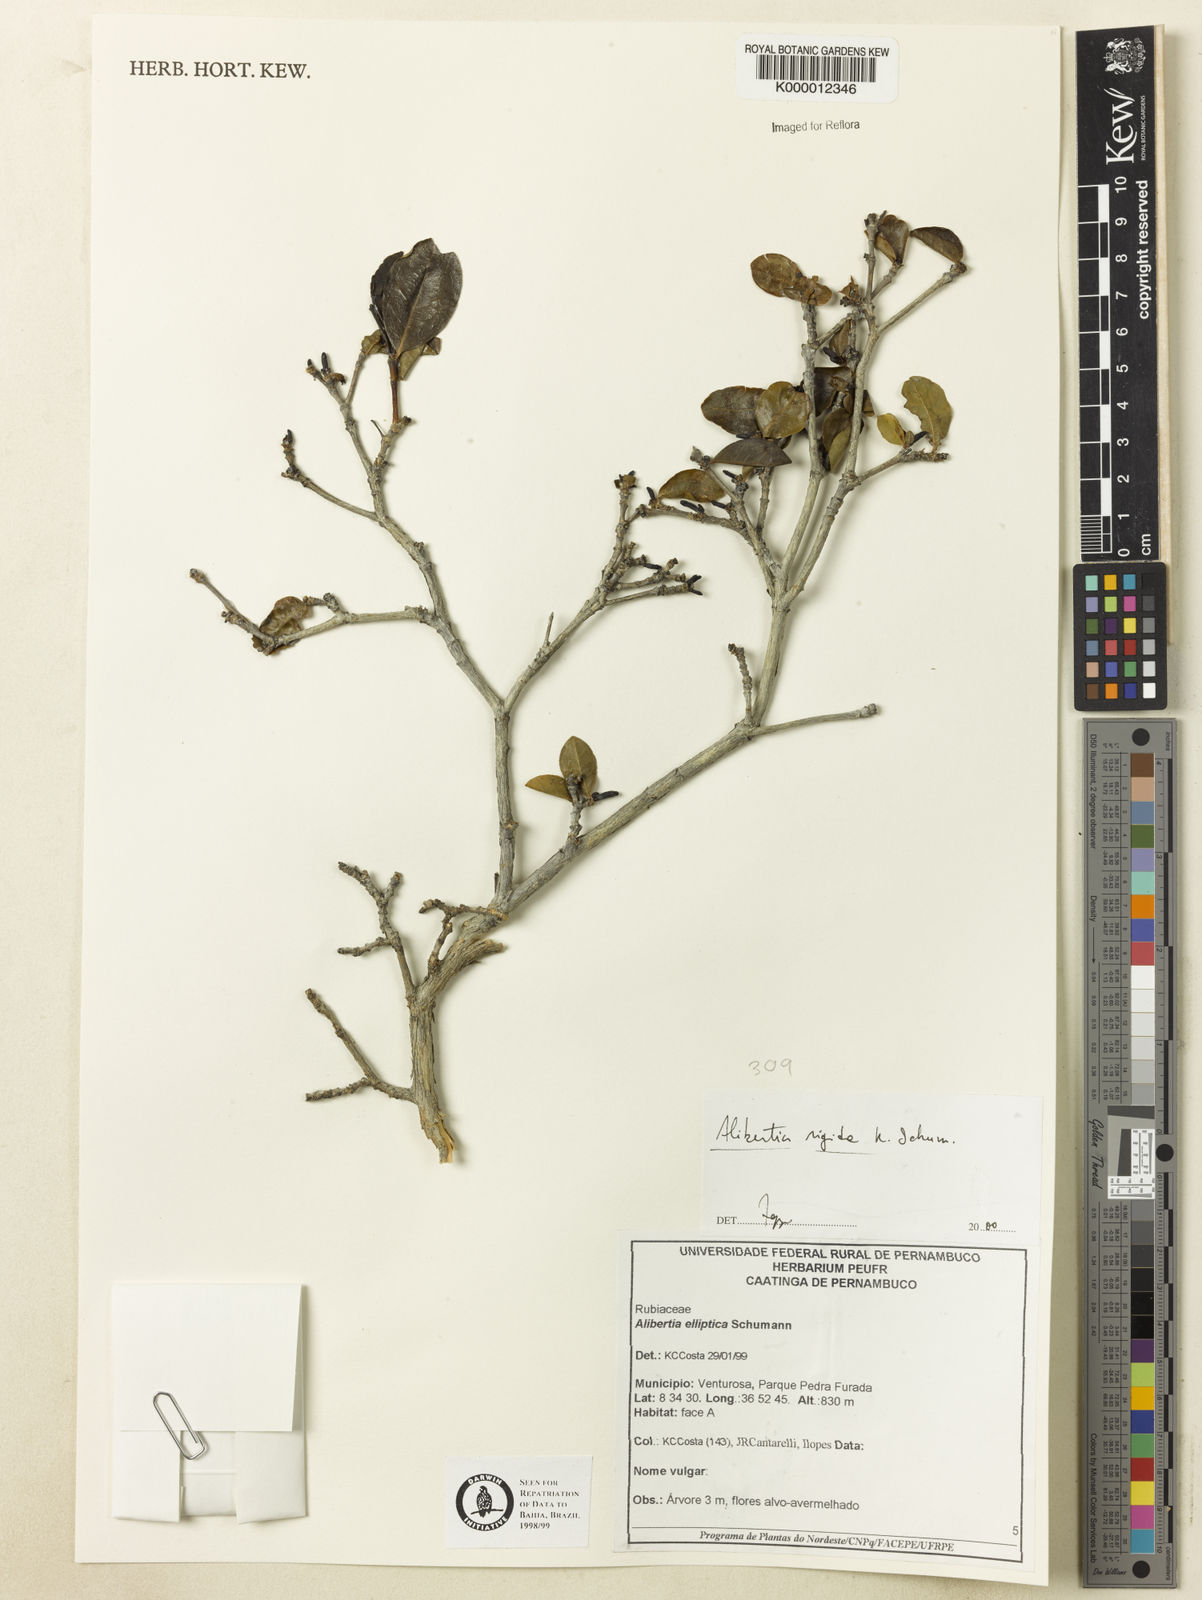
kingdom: Plantae
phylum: Tracheophyta
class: Magnoliopsida
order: Gentianales
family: Rubiaceae
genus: Cordiera
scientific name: Cordiera rigida
